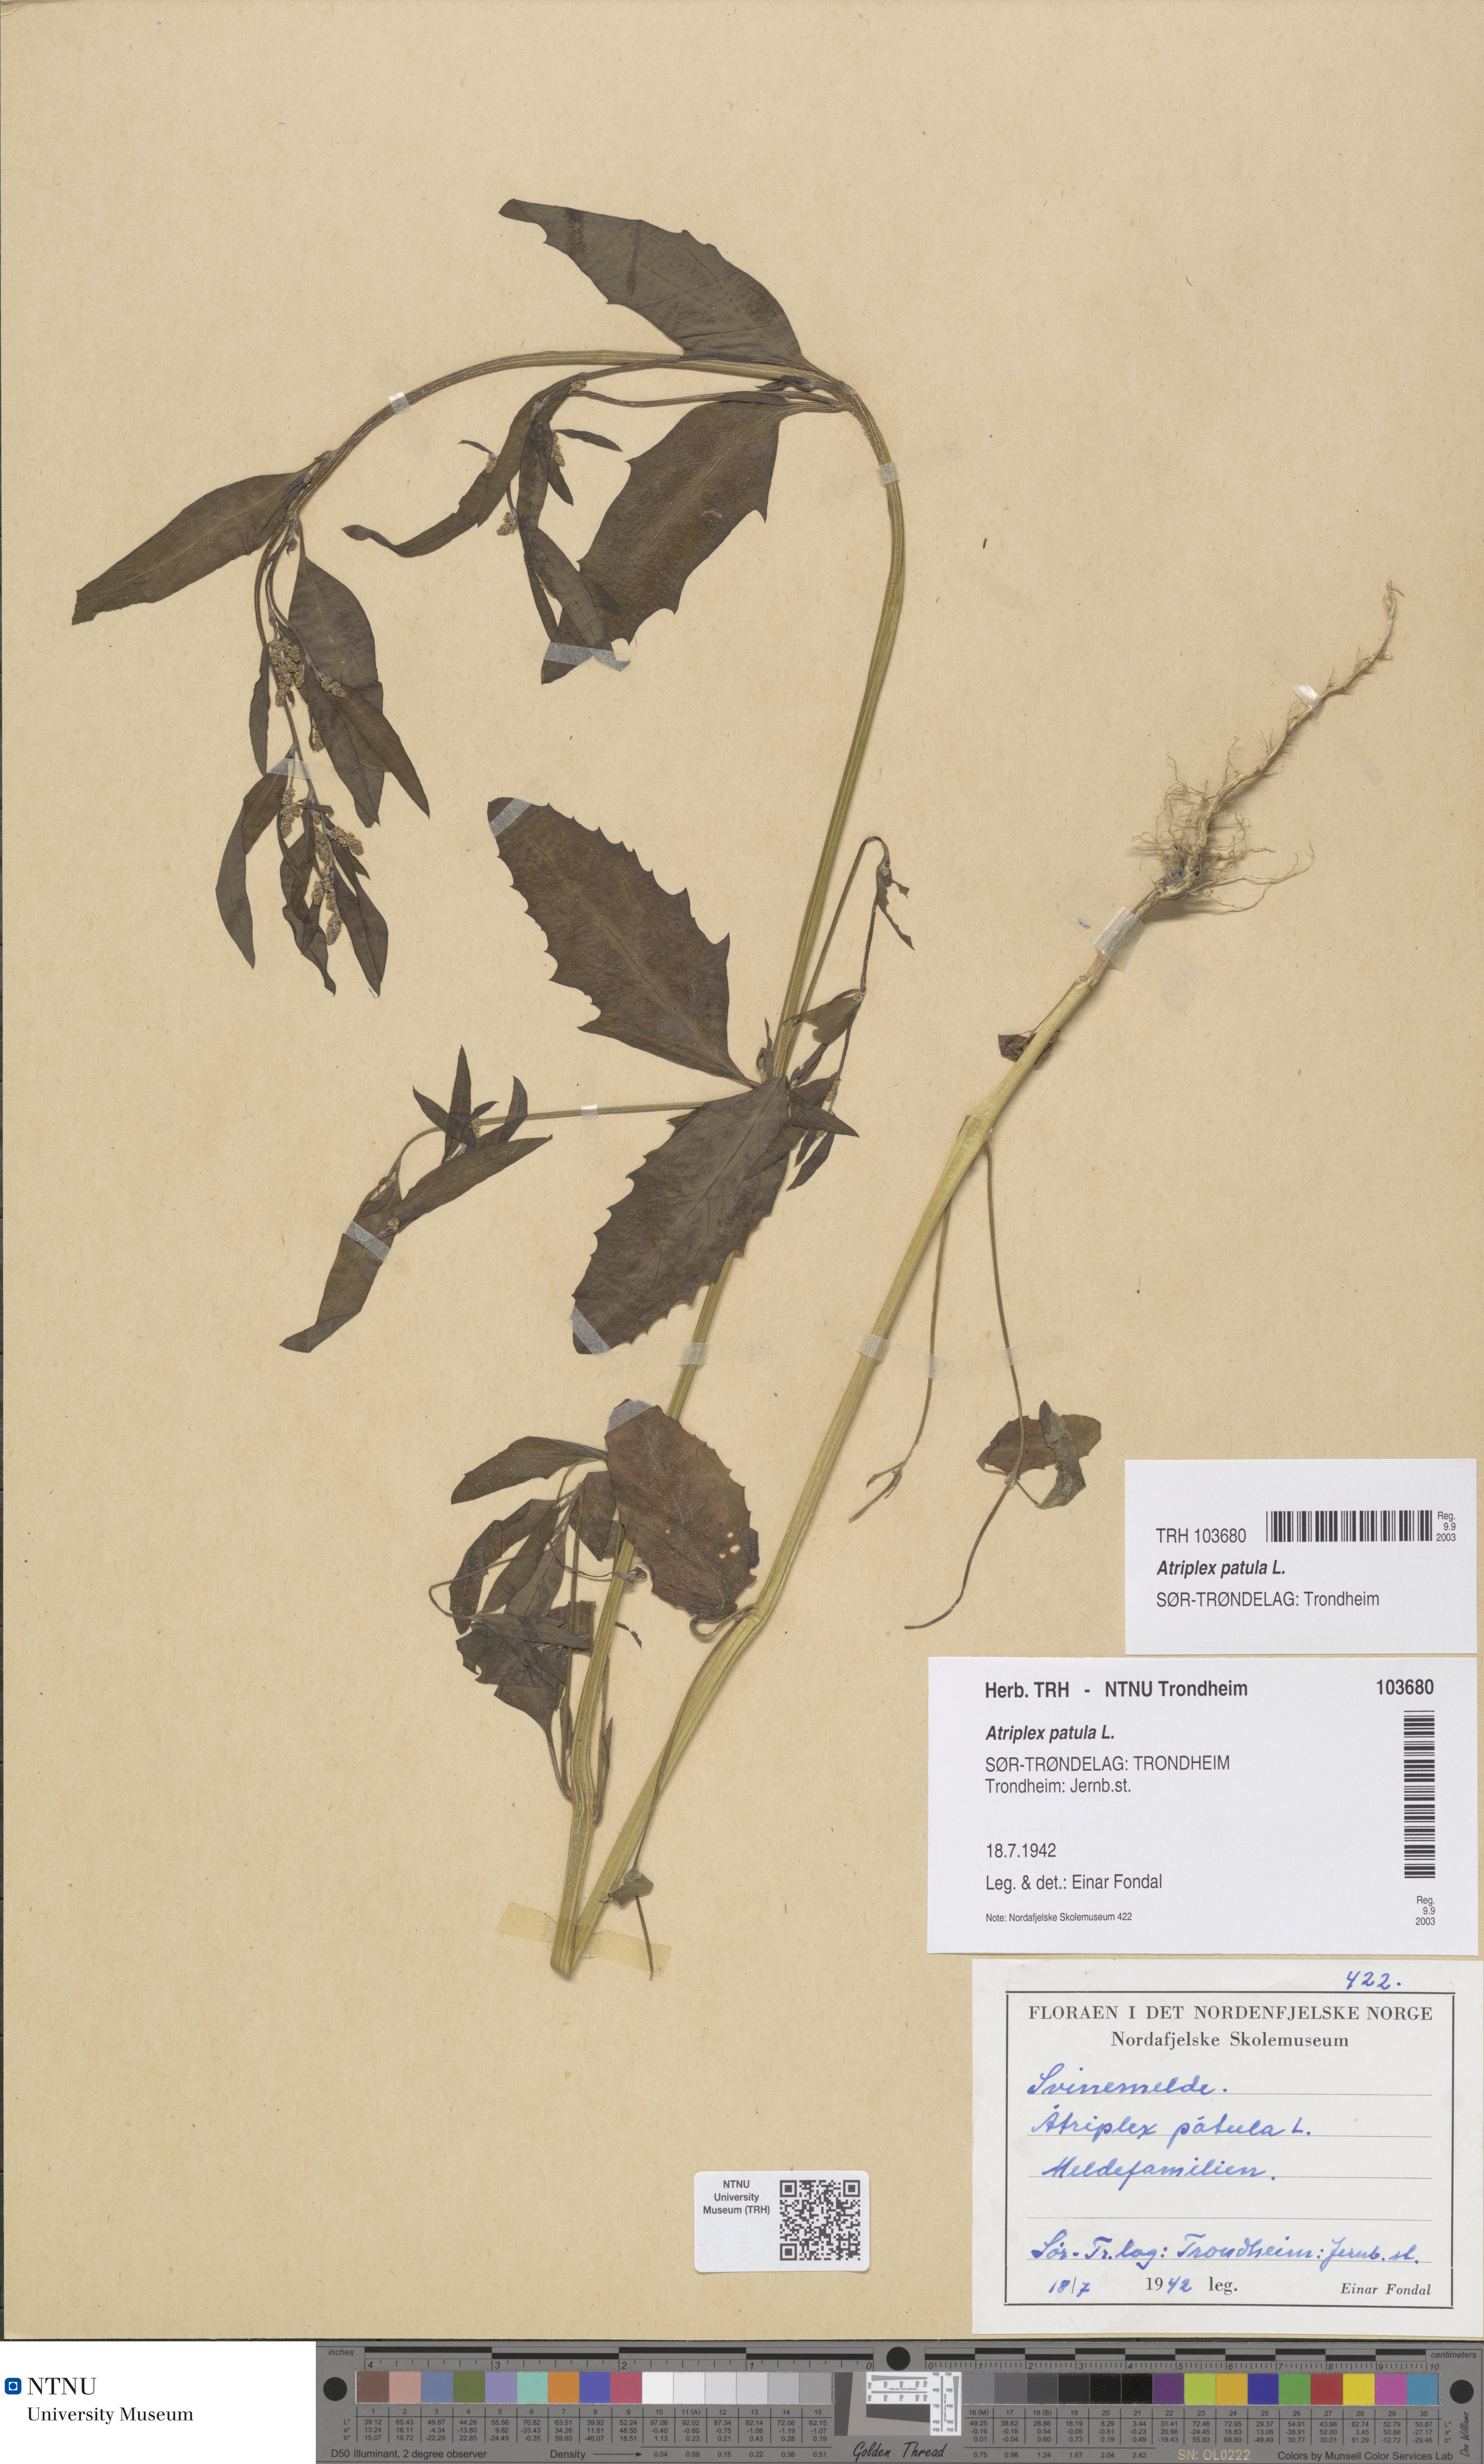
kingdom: Plantae
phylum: Tracheophyta
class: Magnoliopsida
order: Caryophyllales
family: Amaranthaceae
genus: Atriplex
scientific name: Atriplex patula
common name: Common orache
